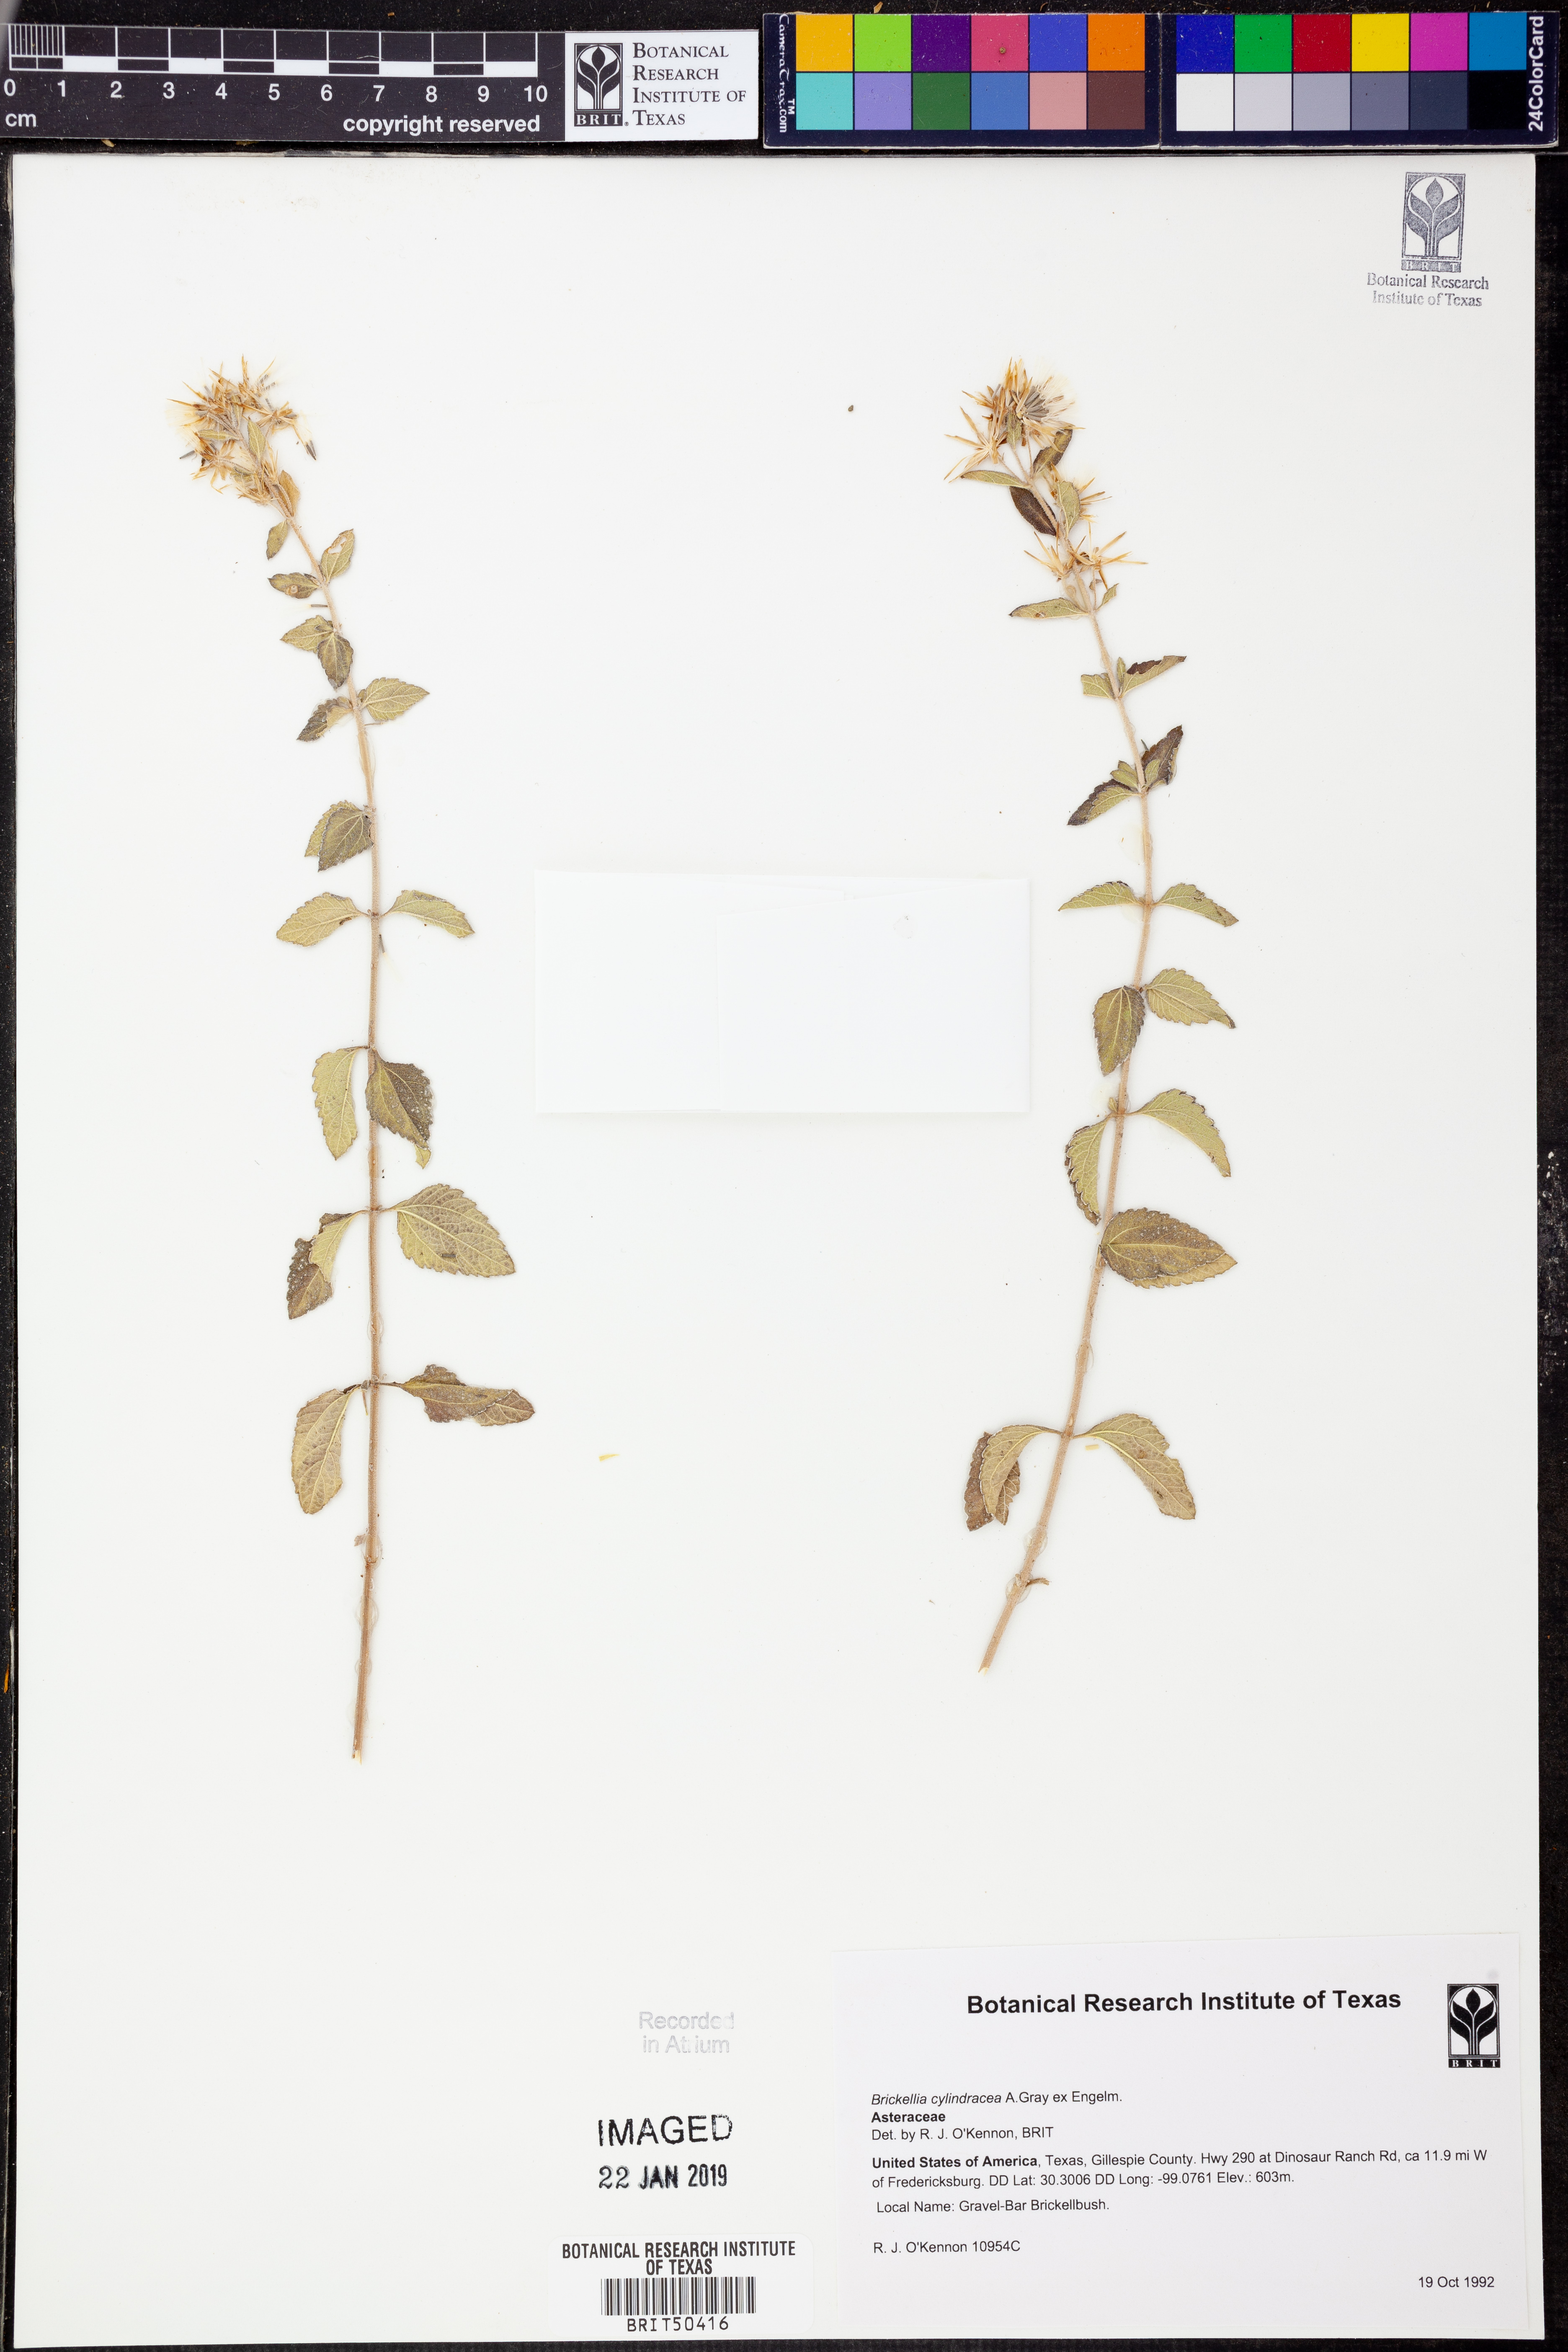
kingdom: Plantae
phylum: Tracheophyta
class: Magnoliopsida
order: Asterales
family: Asteraceae
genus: Brickellia
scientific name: Brickellia cylindracea
